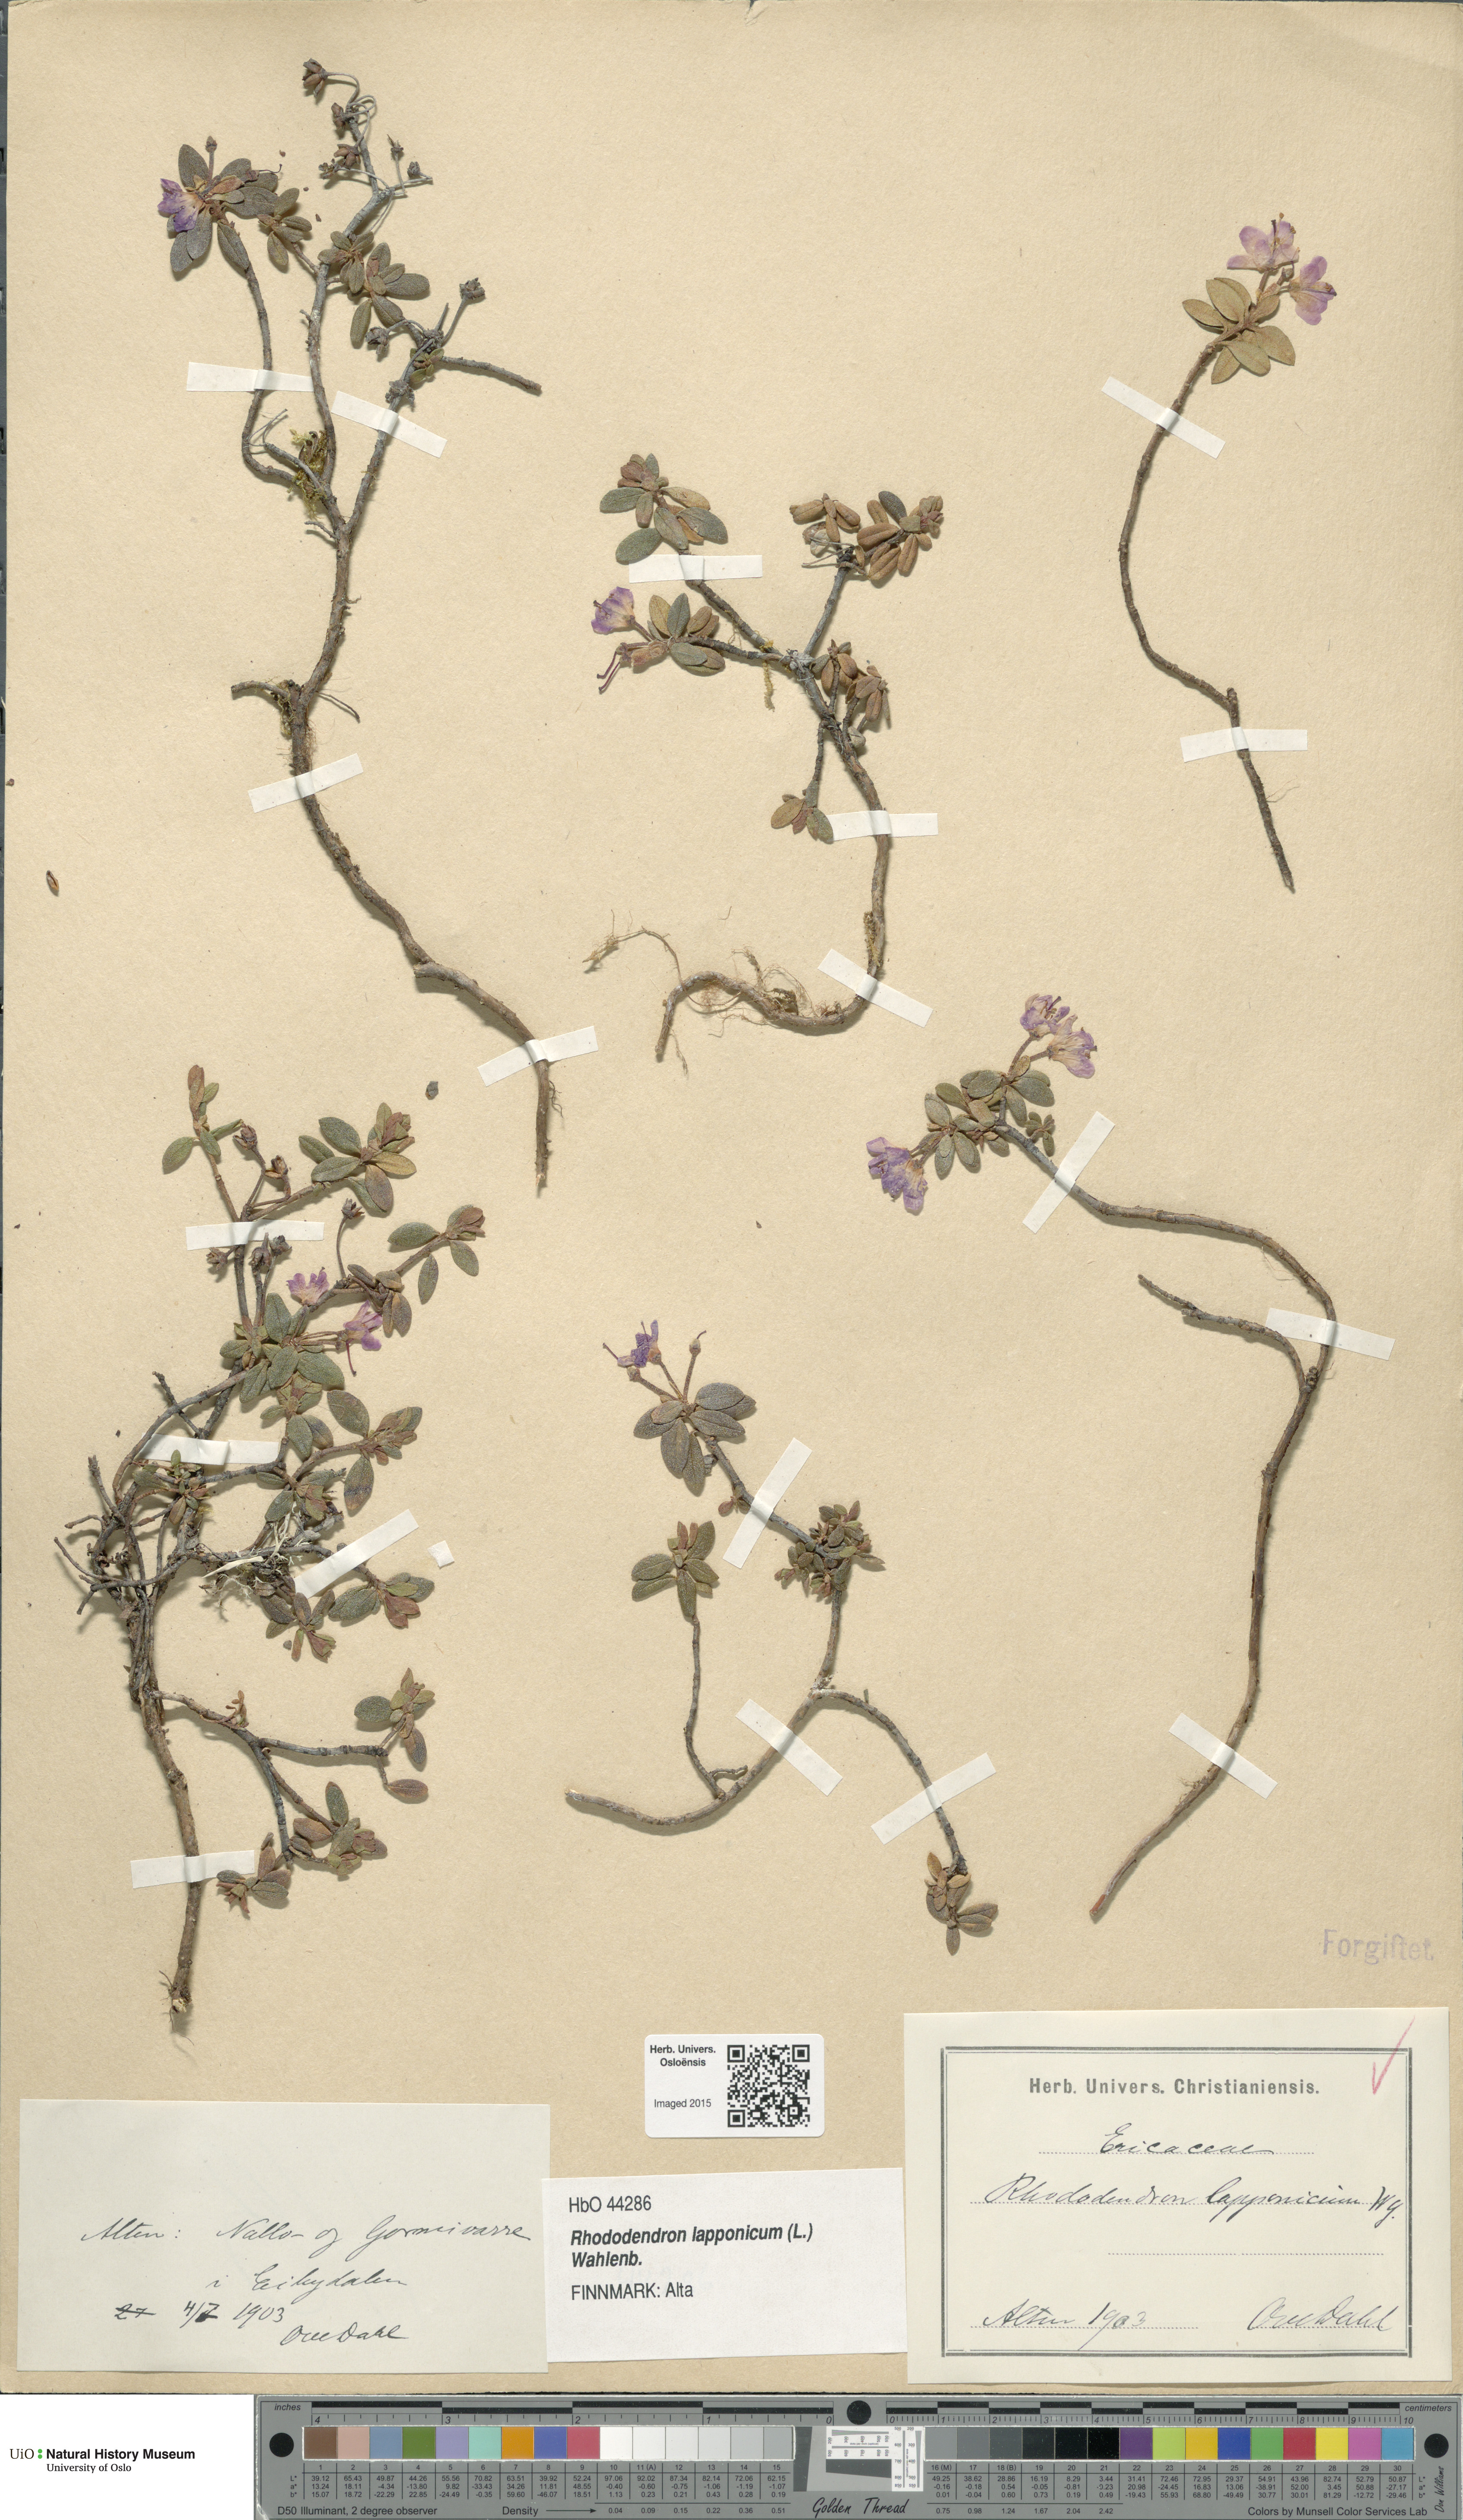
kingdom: Plantae
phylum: Tracheophyta
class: Magnoliopsida
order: Ericales
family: Ericaceae
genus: Rhododendron
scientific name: Rhododendron lapponicum
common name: Lapland rhododendron
